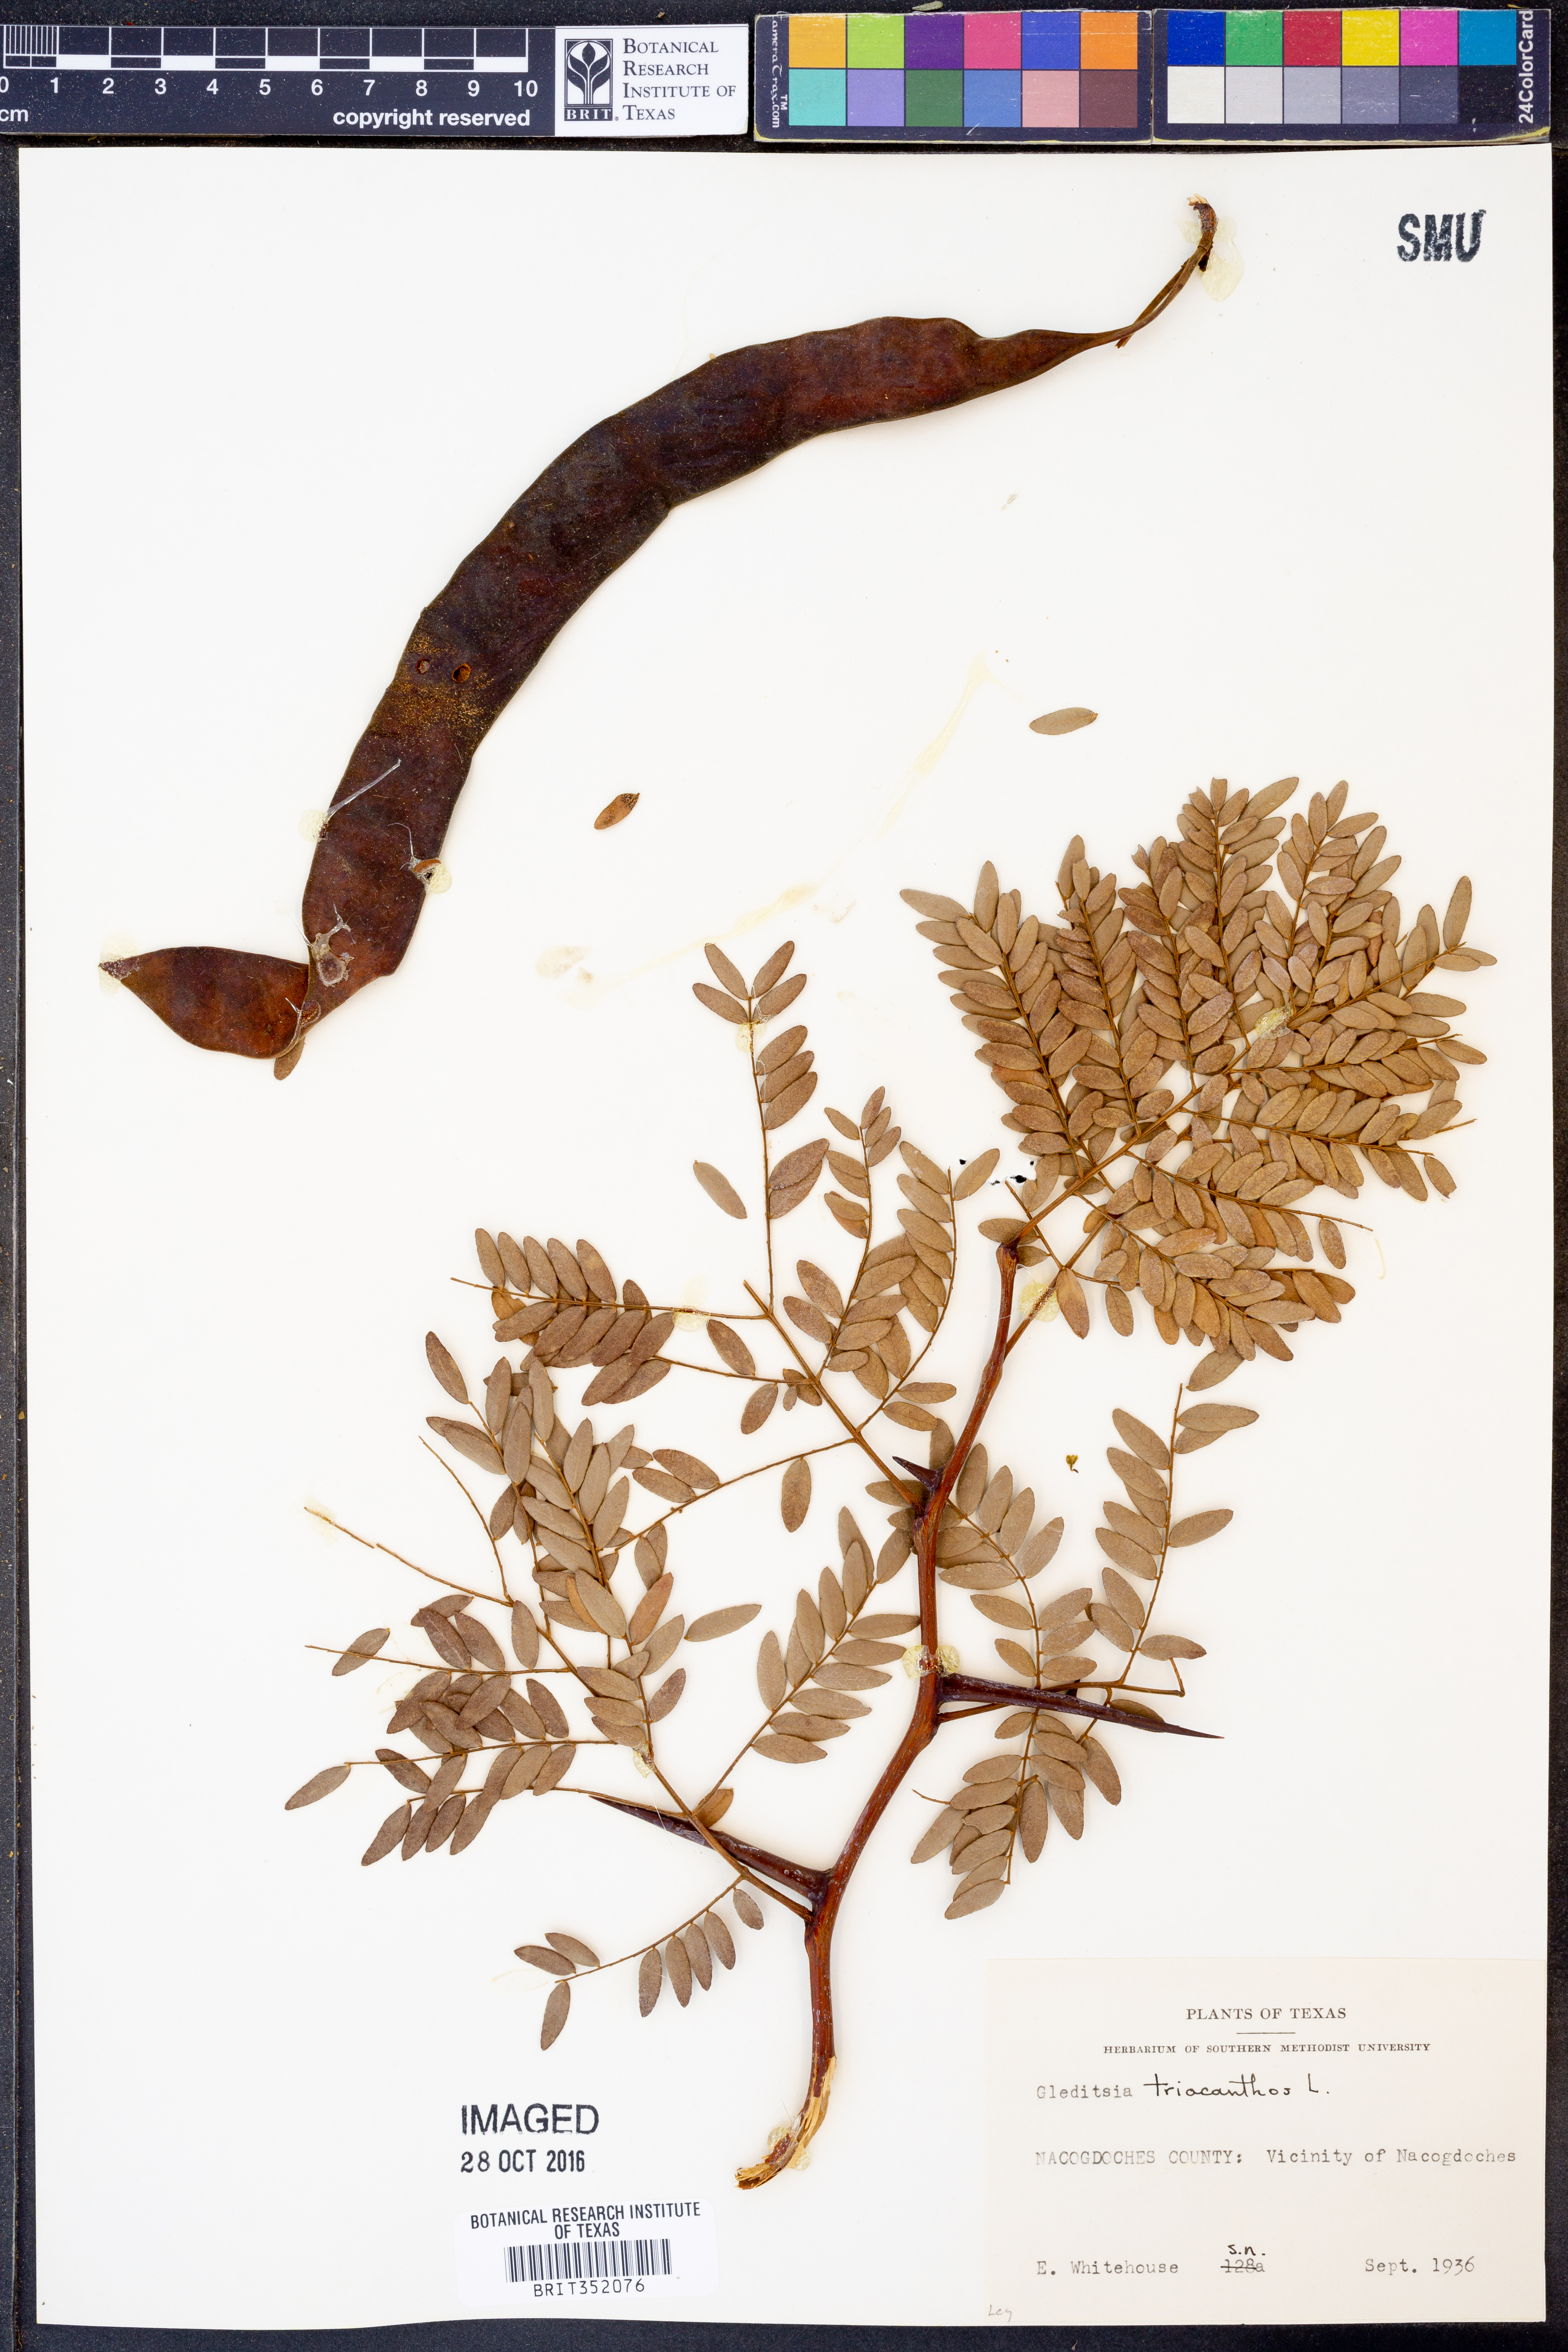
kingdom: Plantae
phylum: Tracheophyta
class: Magnoliopsida
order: Fabales
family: Fabaceae
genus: Gleditsia
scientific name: Gleditsia triacanthos
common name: Common honeylocust
